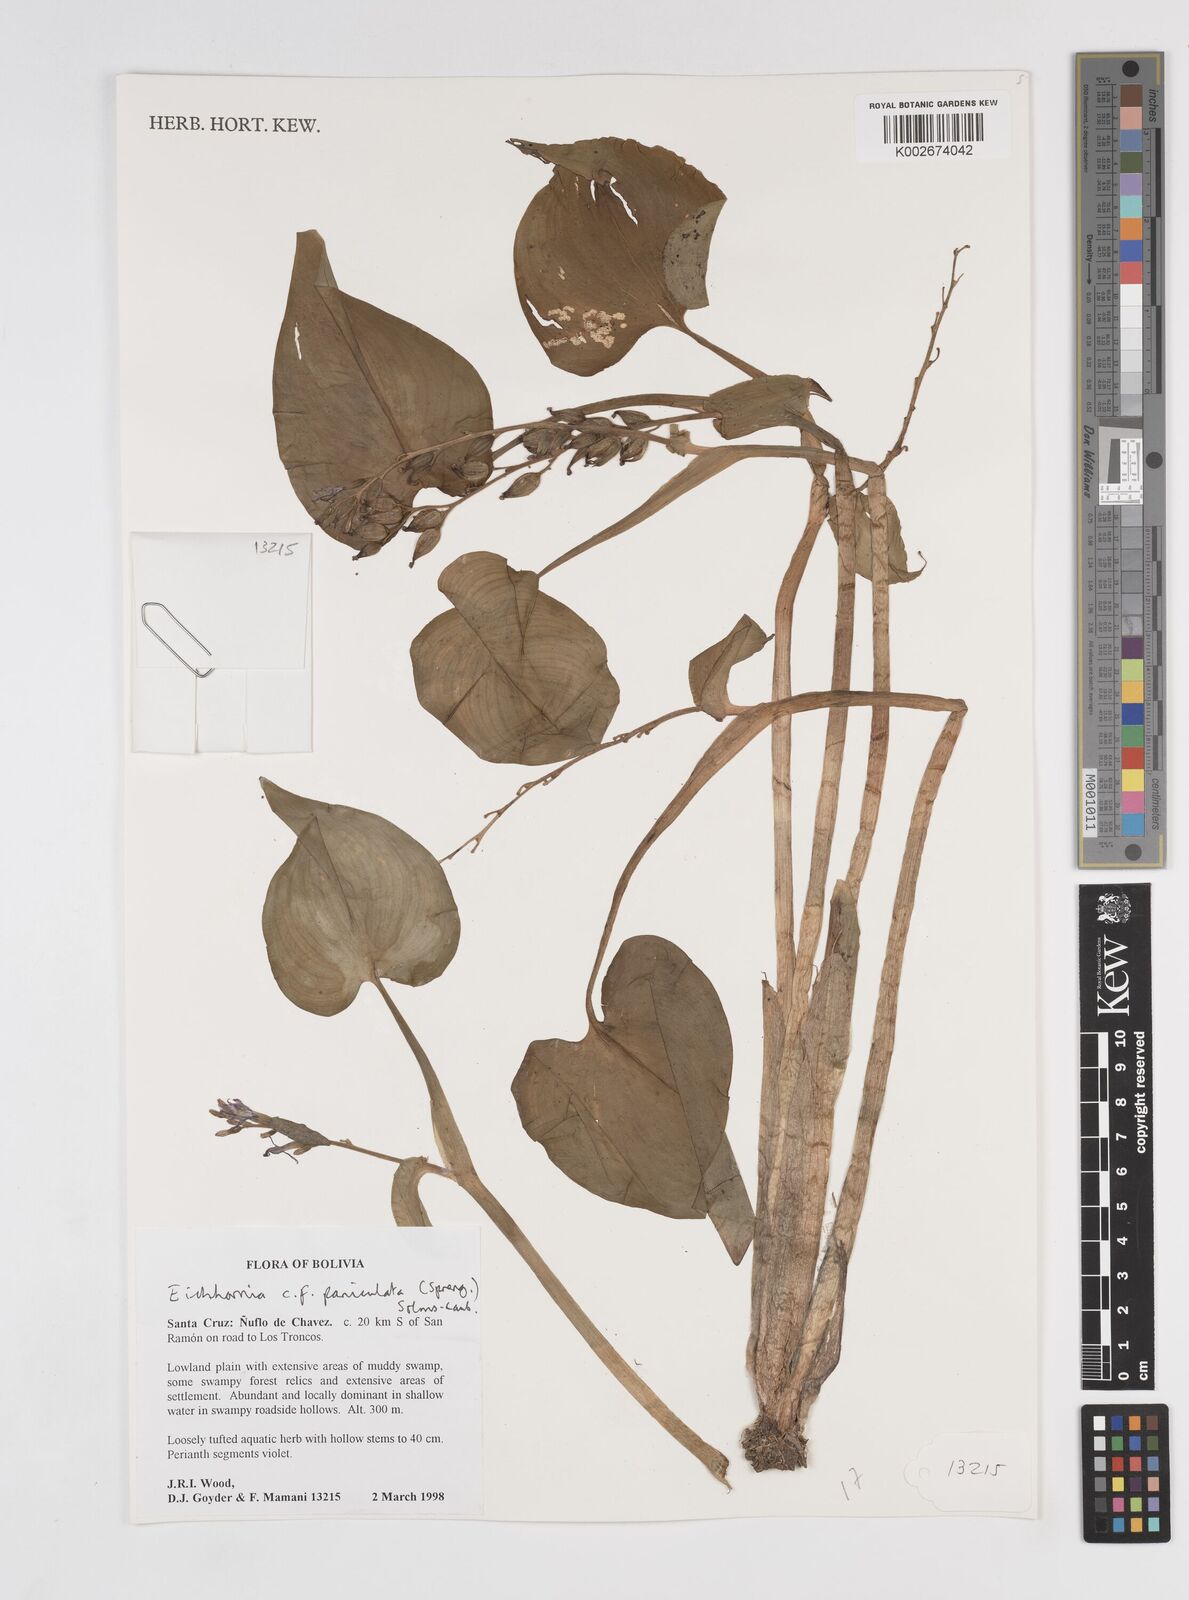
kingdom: Plantae
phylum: Tracheophyta
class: Liliopsida
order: Commelinales
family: Pontederiaceae
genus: Pontederia
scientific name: Pontederia paniculata
